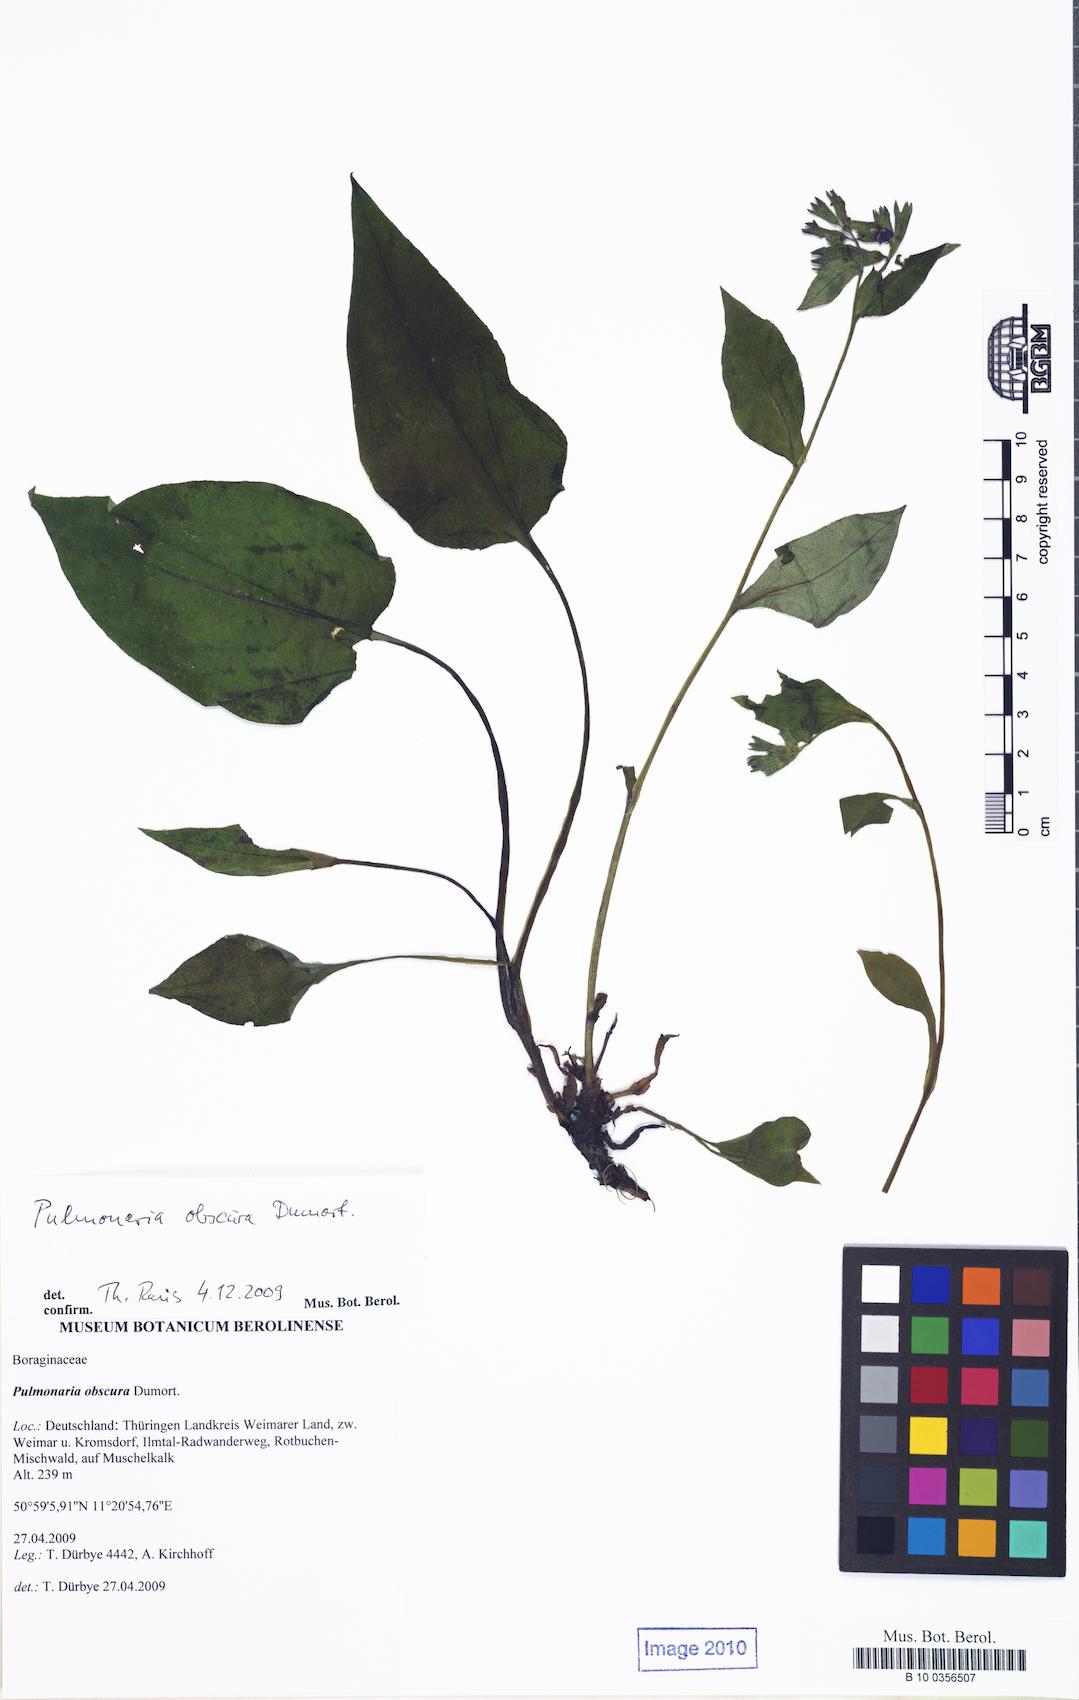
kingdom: Plantae
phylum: Tracheophyta
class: Magnoliopsida
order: Boraginales
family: Boraginaceae
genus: Pulmonaria
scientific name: Pulmonaria obscura
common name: Suffolk lungwort
